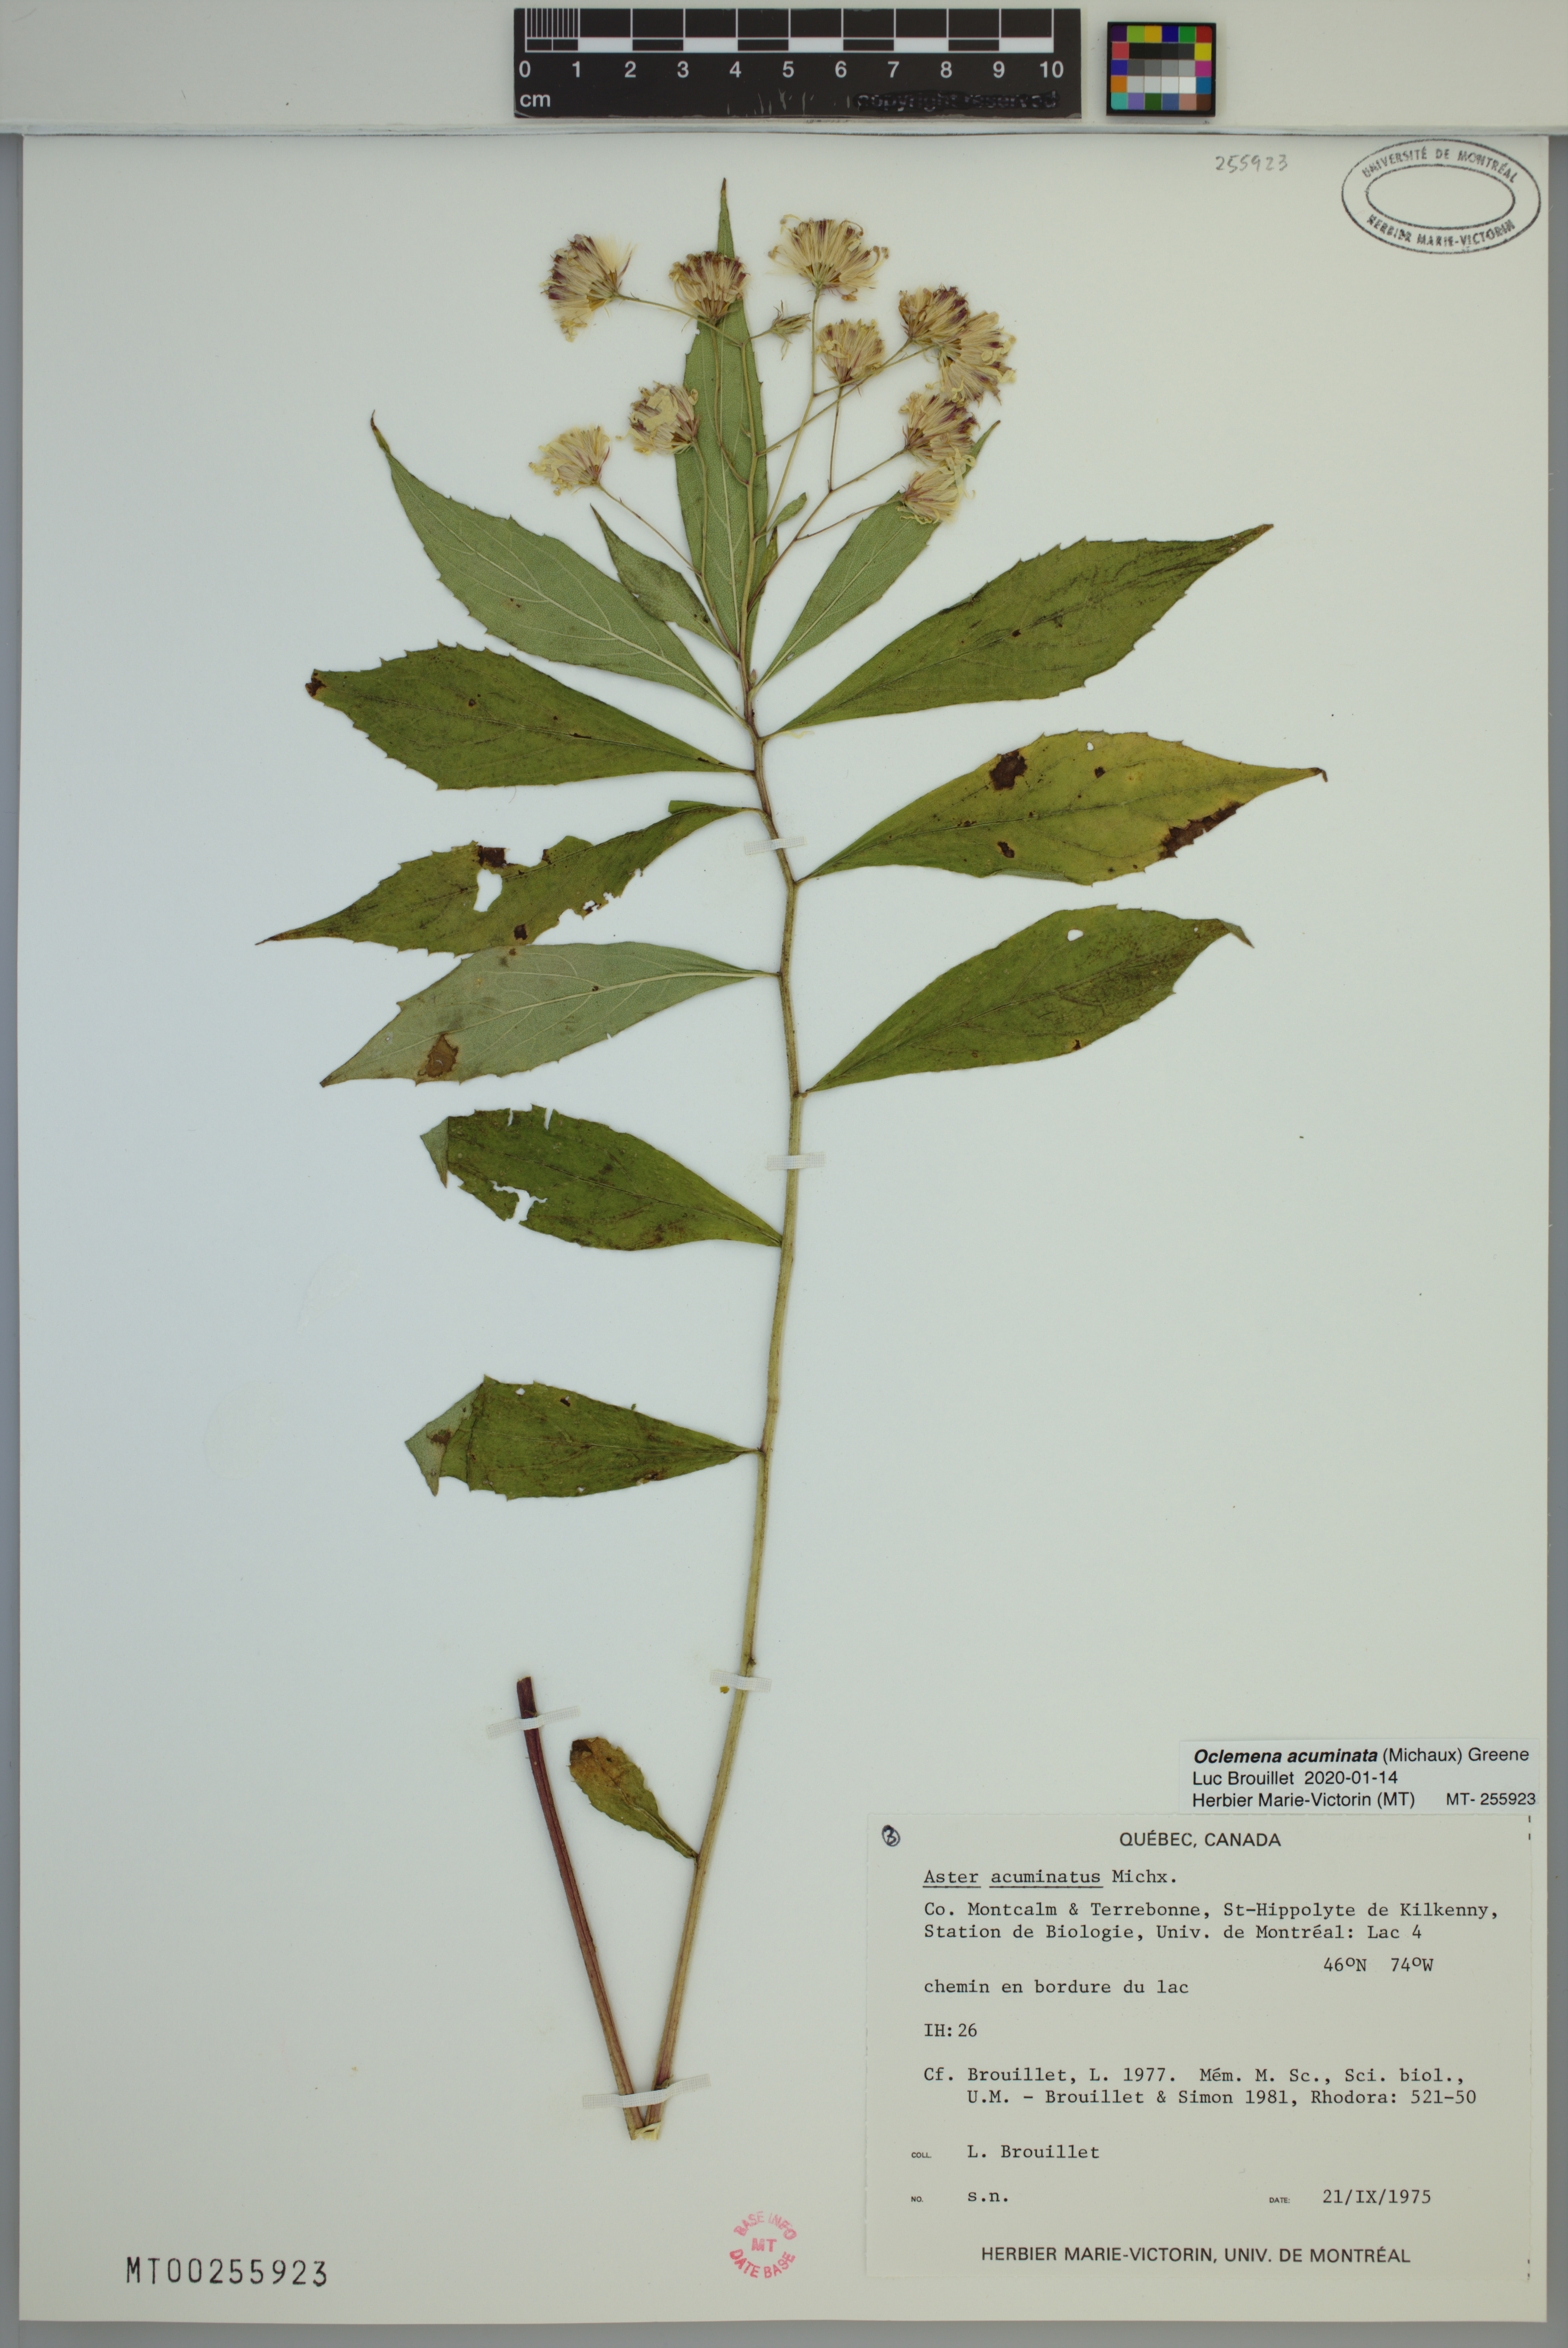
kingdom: Plantae
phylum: Tracheophyta
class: Magnoliopsida
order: Asterales
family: Asteraceae
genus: Oclemena
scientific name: Oclemena acuminata
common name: Mountain aster
